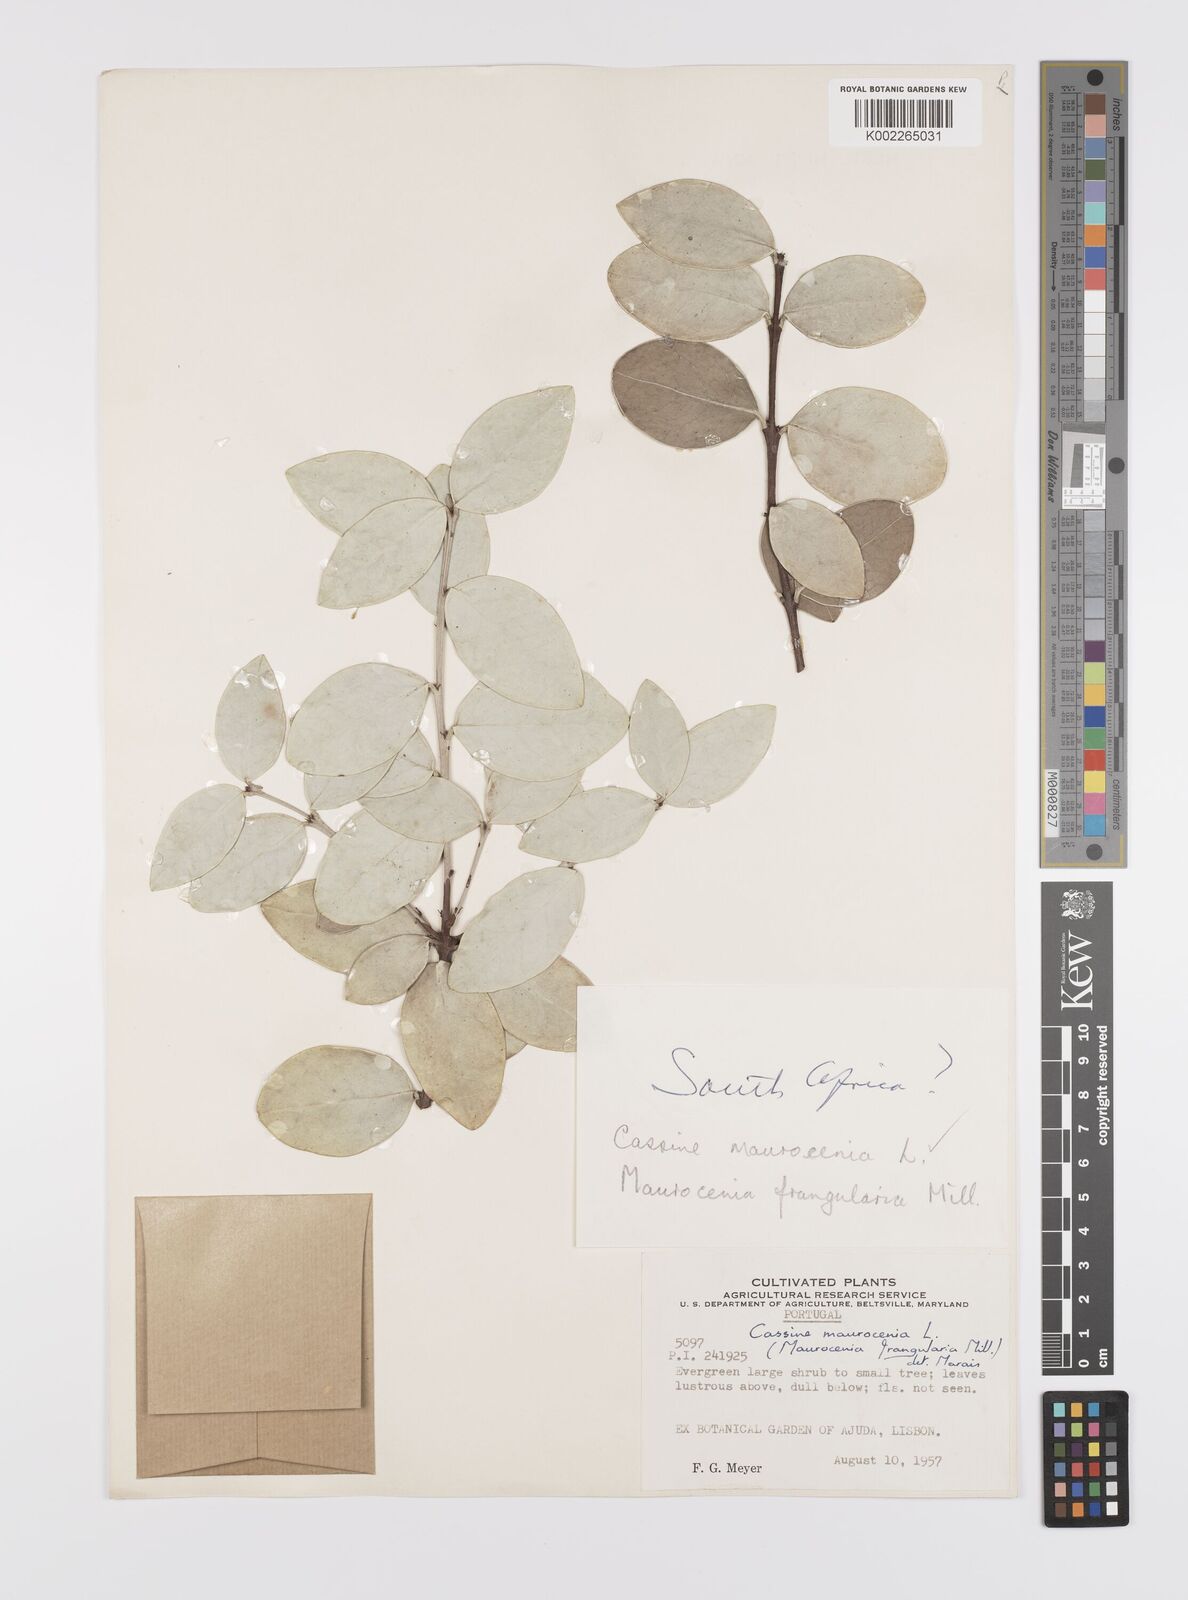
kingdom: Plantae
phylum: Tracheophyta
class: Magnoliopsida
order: Celastrales
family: Celastraceae
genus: Maurocenia
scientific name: Maurocenia frangula
